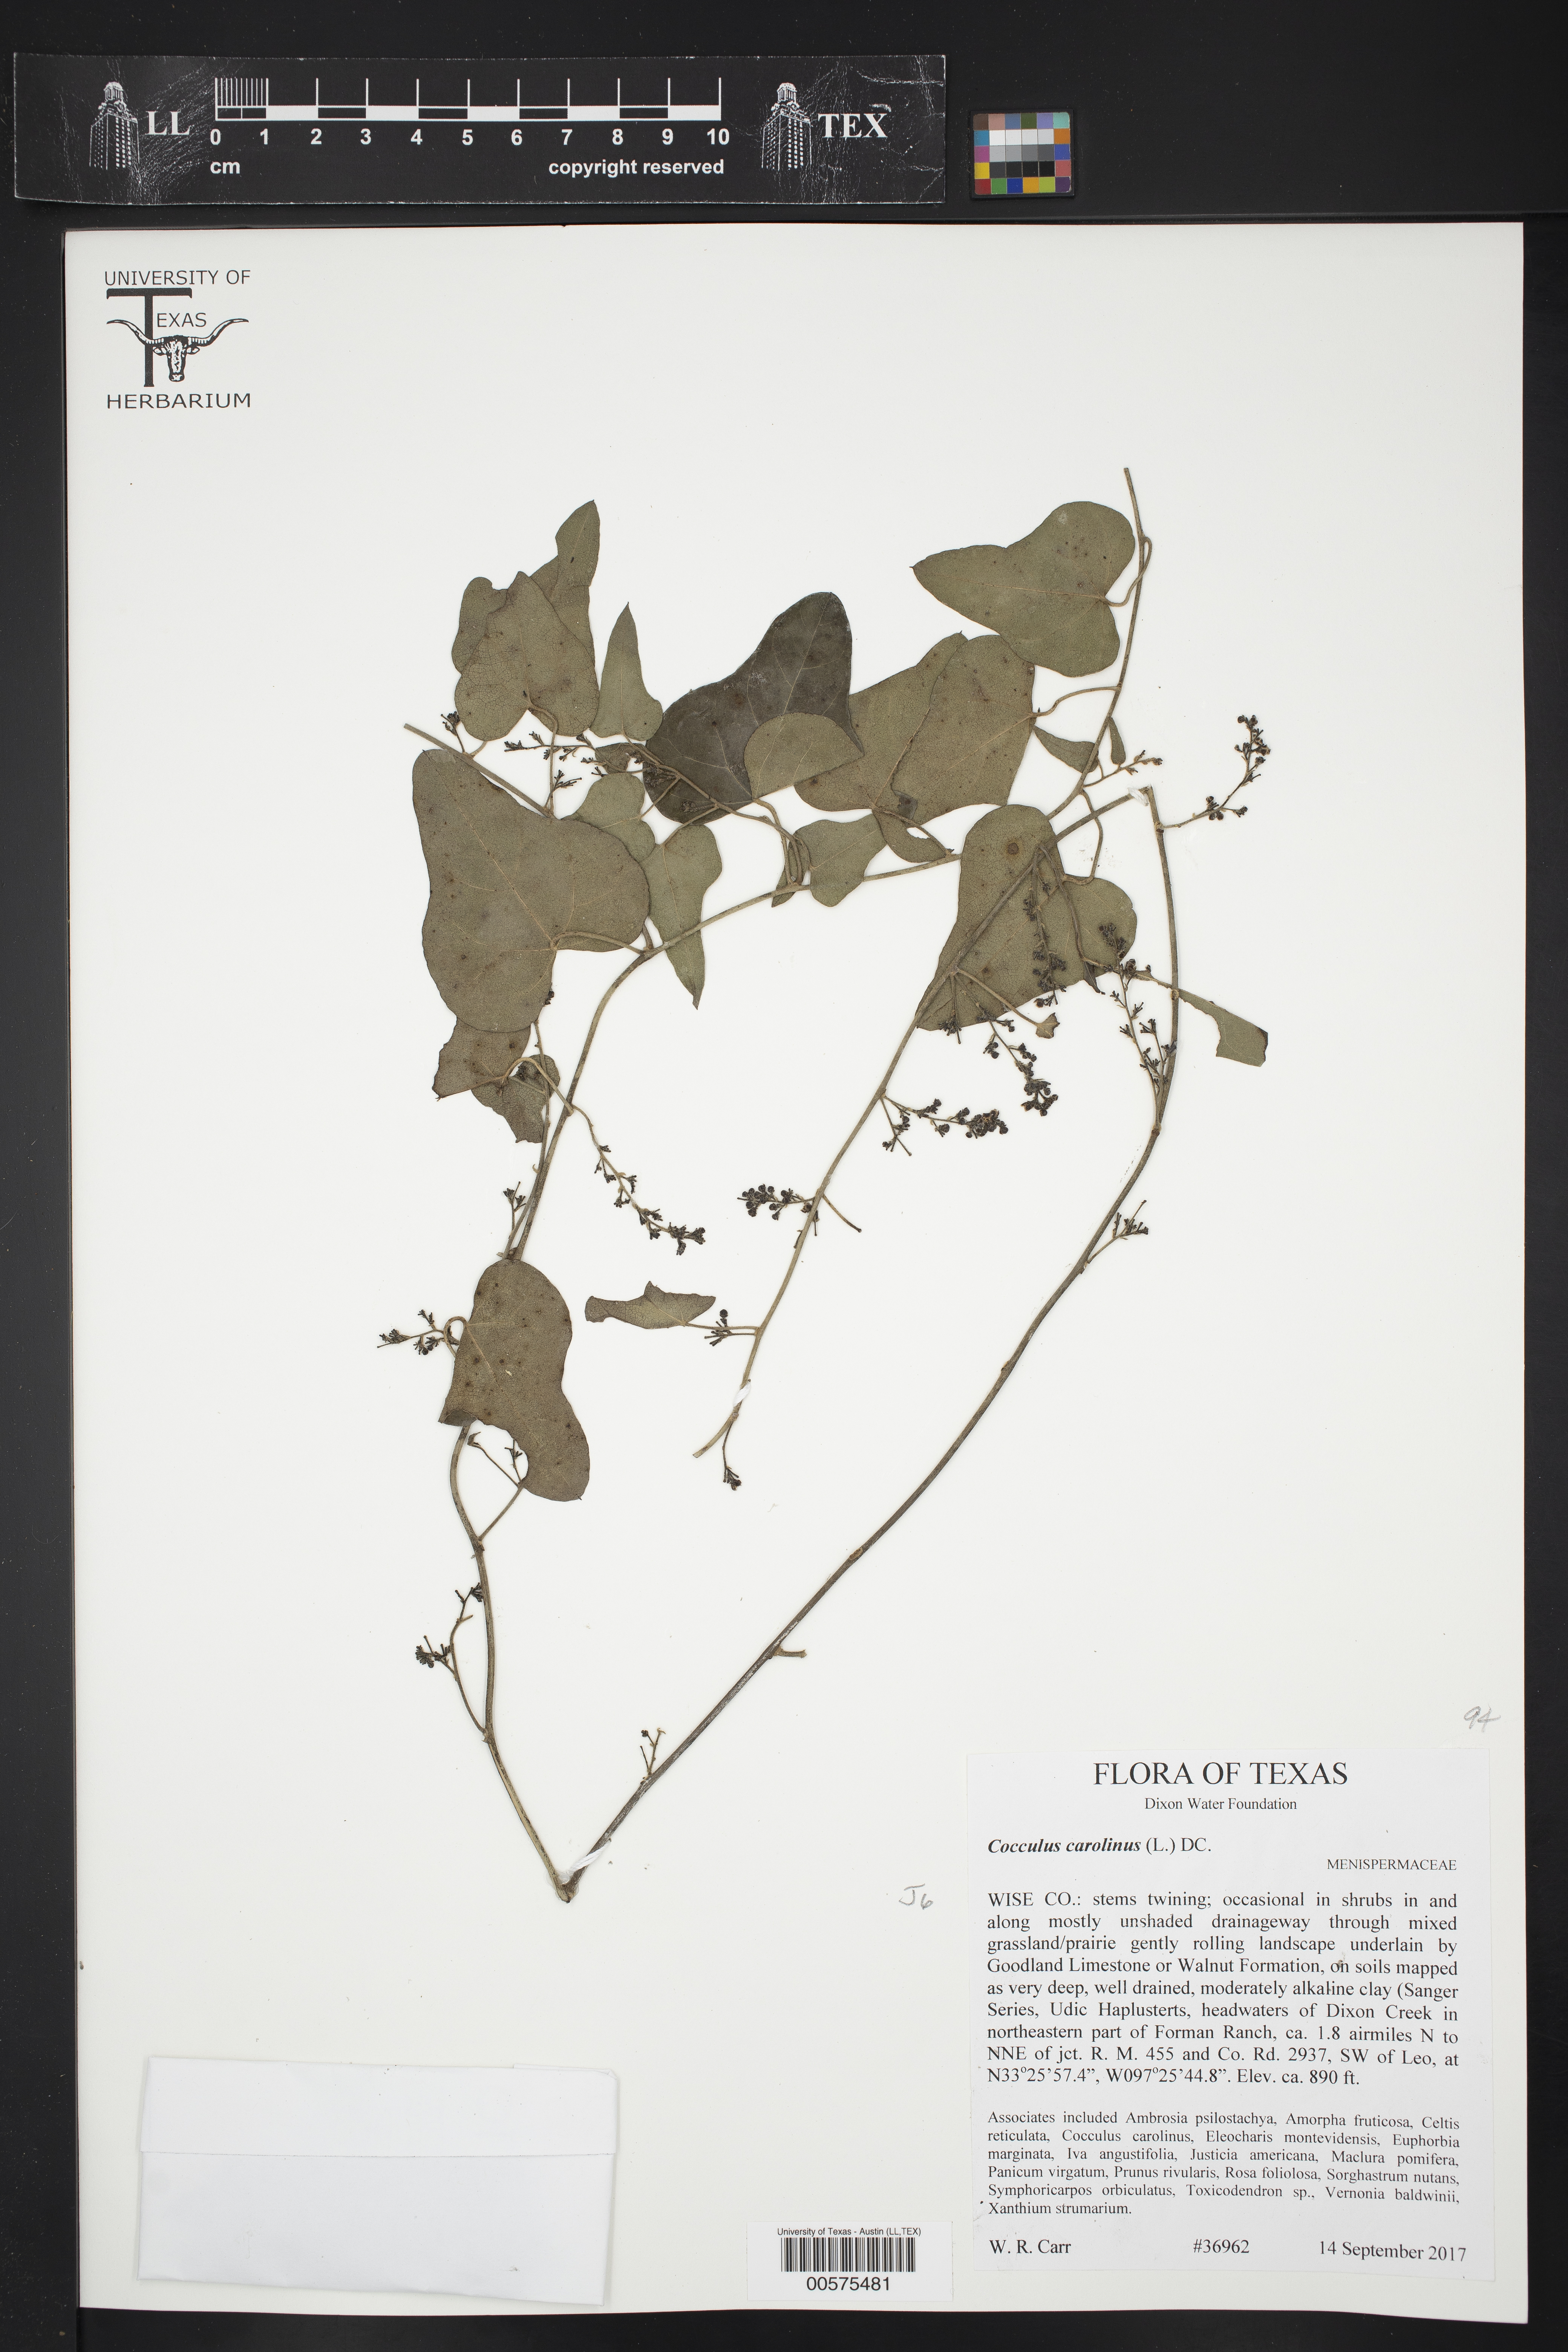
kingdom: Plantae
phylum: Tracheophyta
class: Magnoliopsida
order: Ranunculales
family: Menispermaceae
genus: Cocculus
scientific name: Cocculus carolinus
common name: Carolina moonseed
